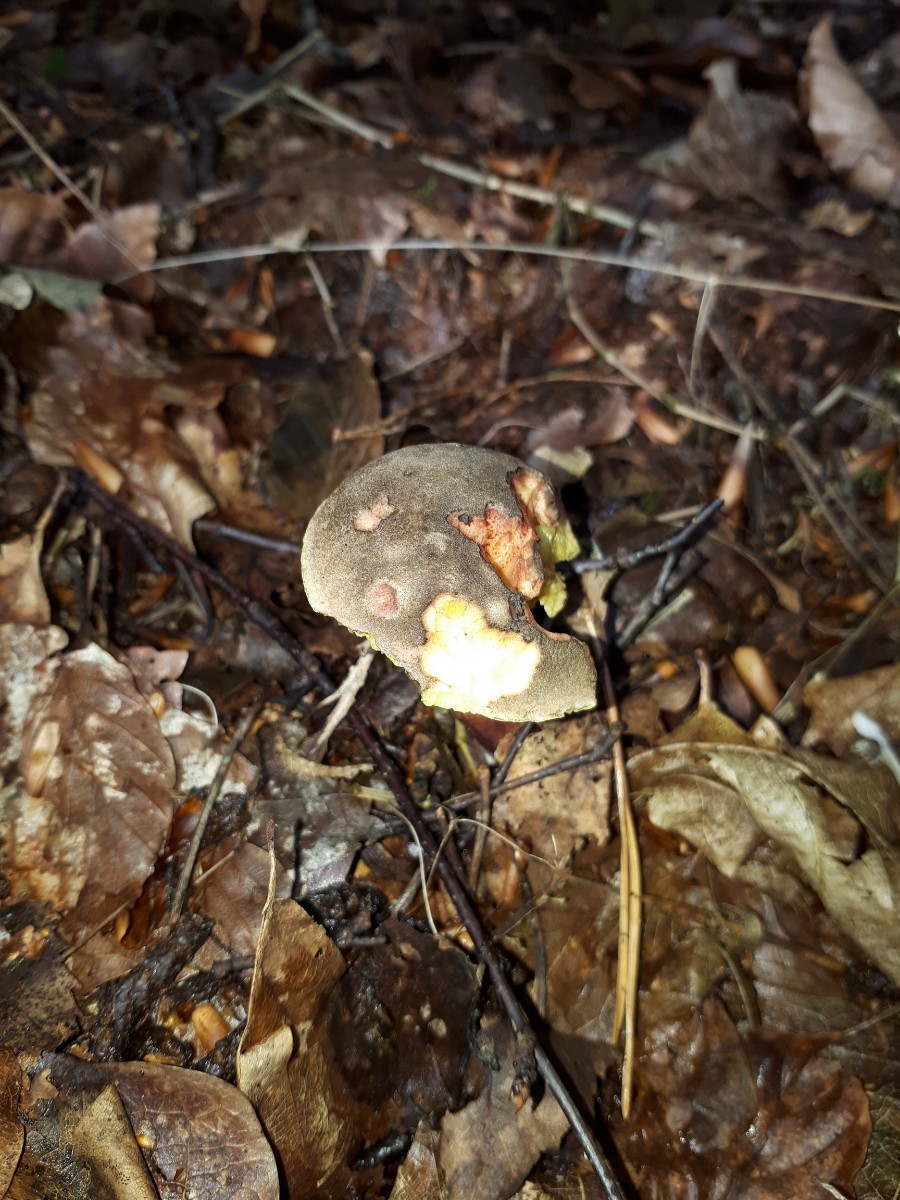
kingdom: Fungi
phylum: Basidiomycota
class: Agaricomycetes
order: Boletales
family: Boletaceae
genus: Xerocomellus
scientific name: Xerocomellus chrysenteron
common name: rødsprukken rørhat
